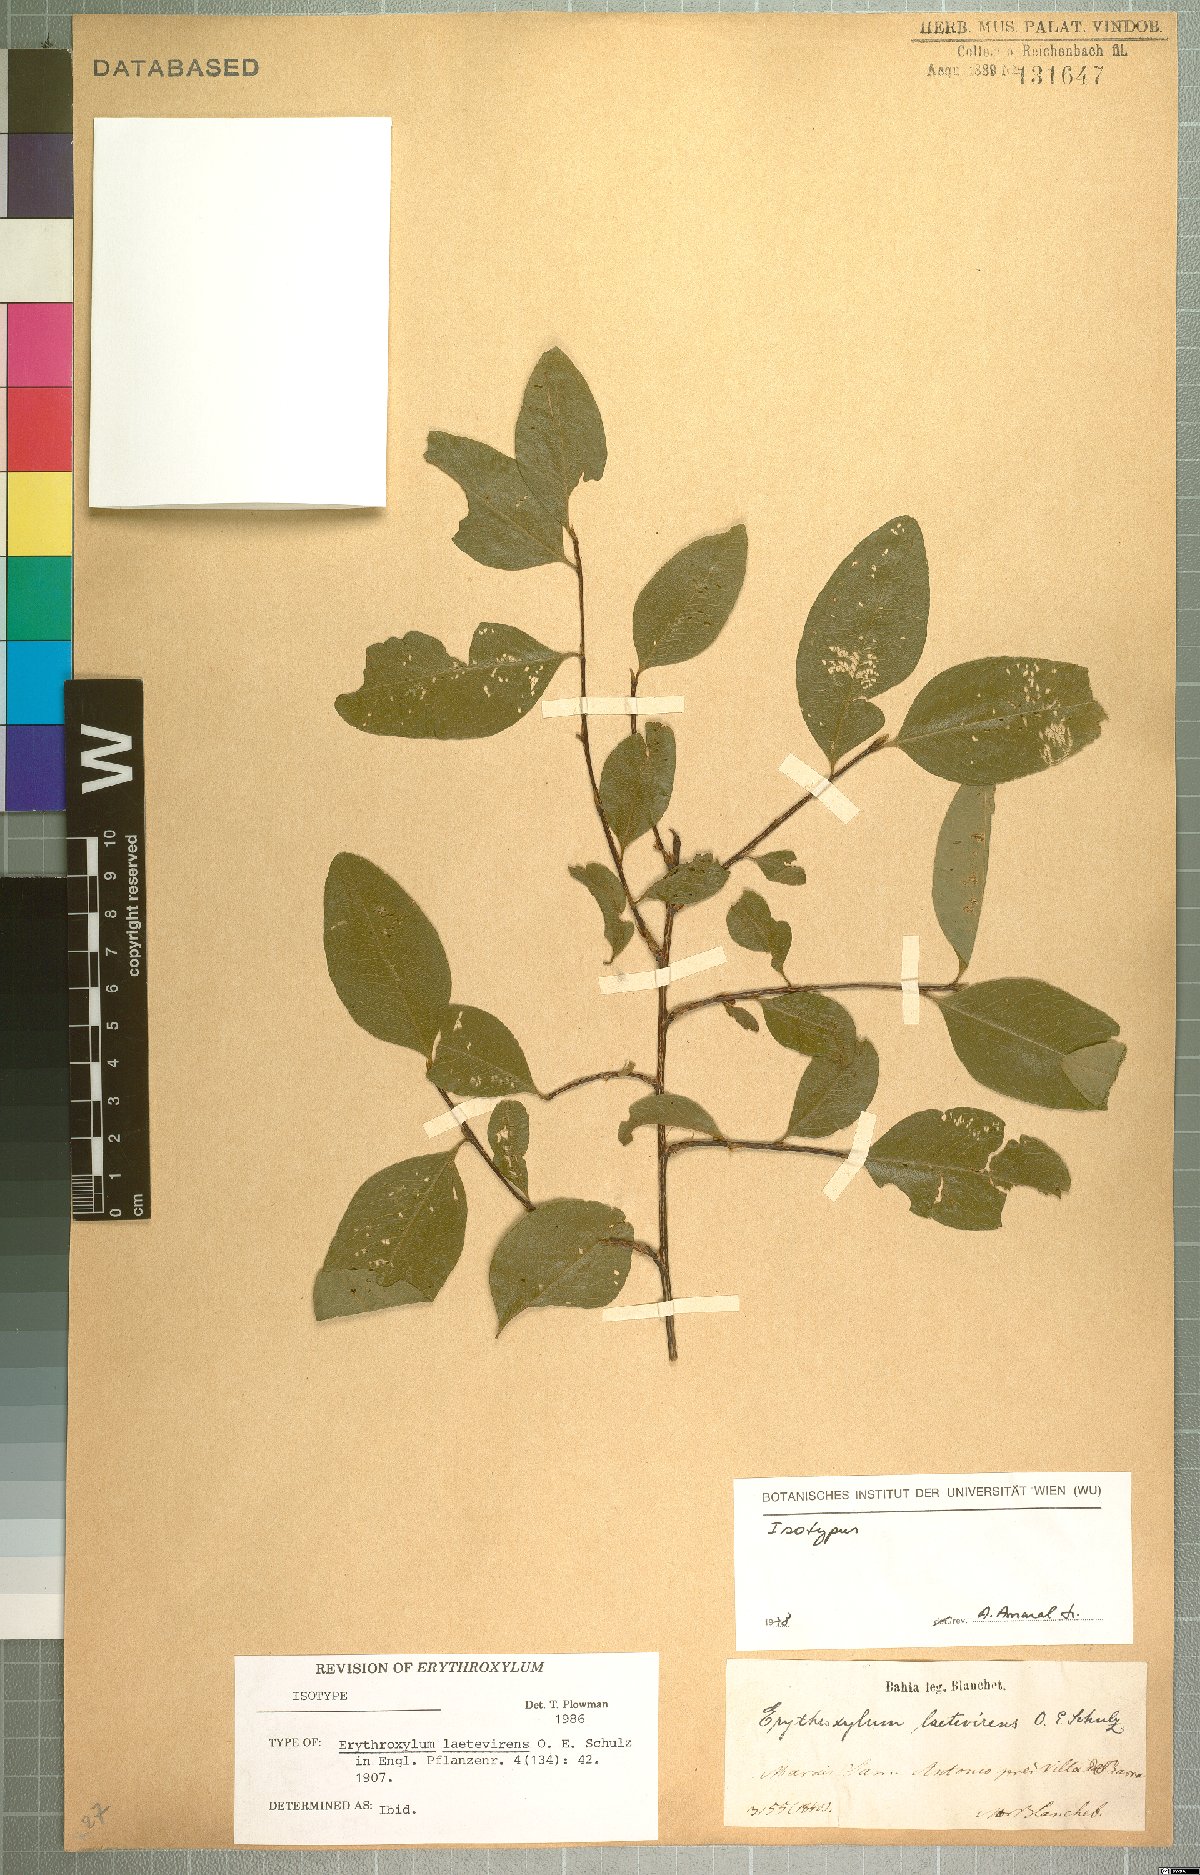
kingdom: Plantae
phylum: Tracheophyta
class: Magnoliopsida
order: Malpighiales
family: Erythroxylaceae
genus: Erythroxylum
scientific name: Erythroxylum laetevirens
